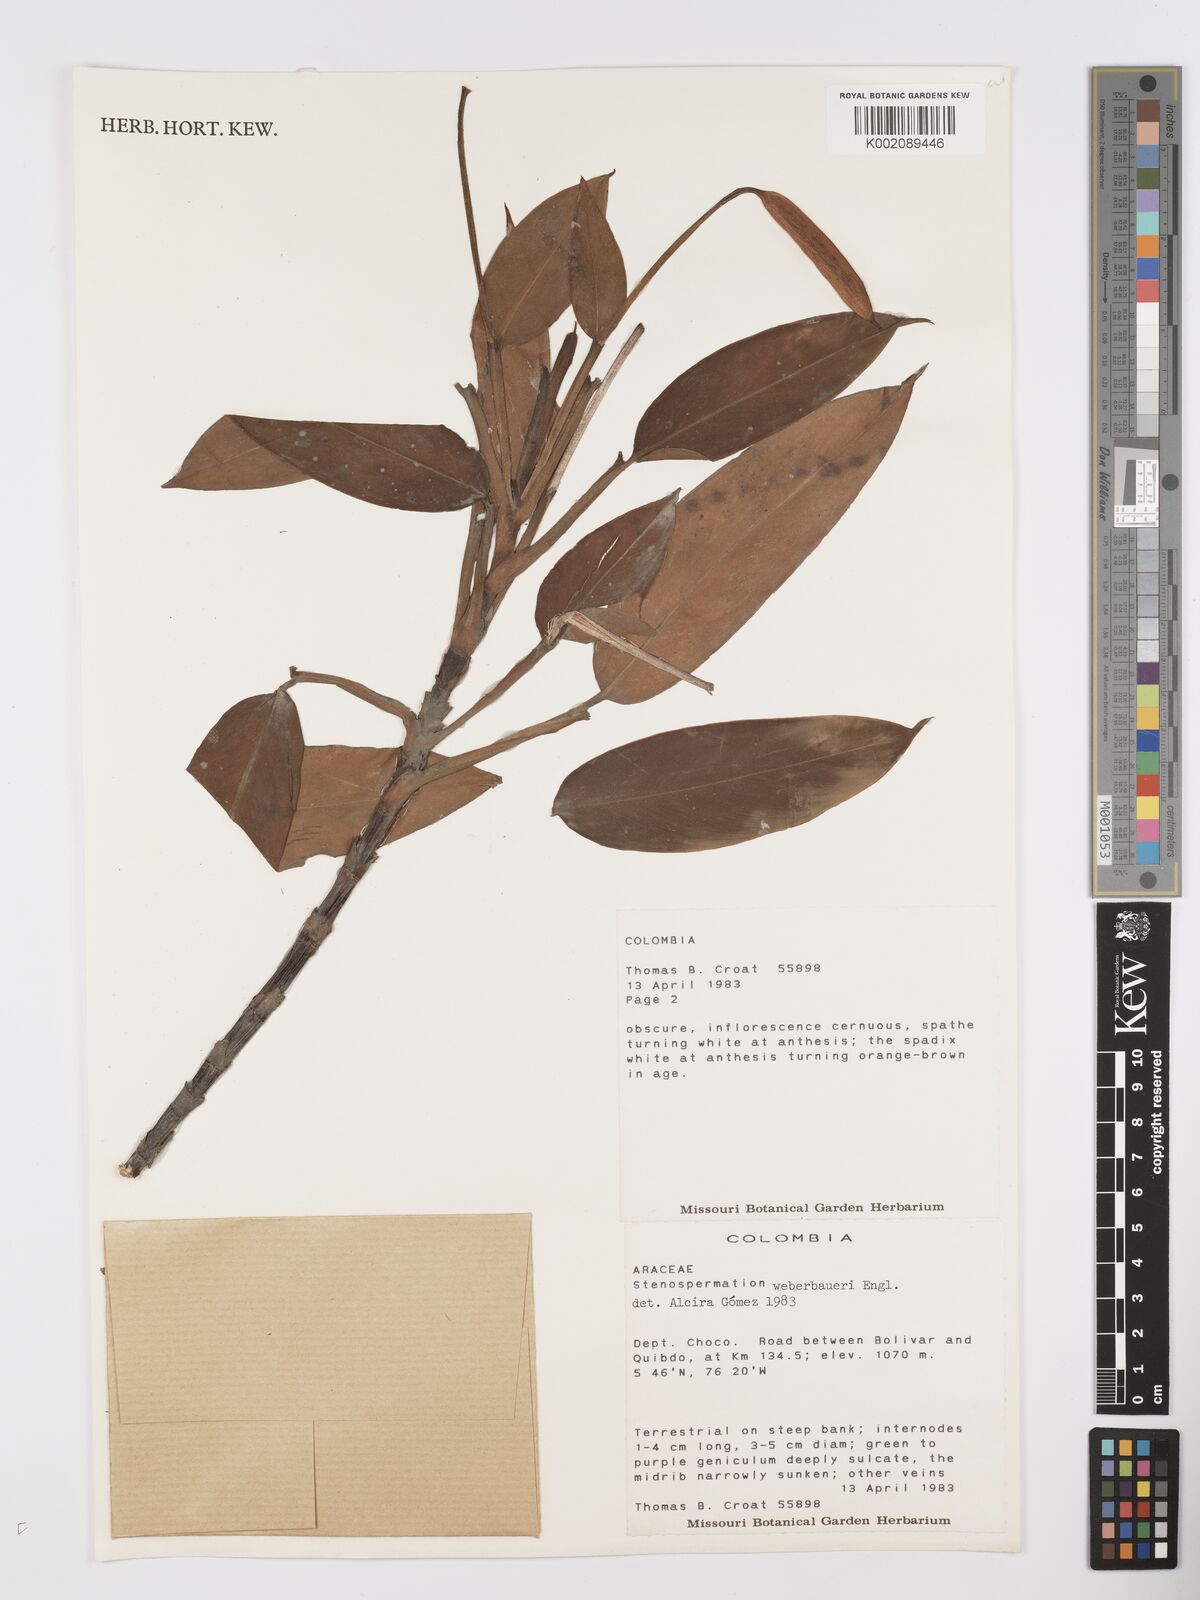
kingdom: Plantae
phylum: Tracheophyta
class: Liliopsida
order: Alismatales
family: Araceae
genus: Stenospermation
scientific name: Stenospermation weberbaueri
